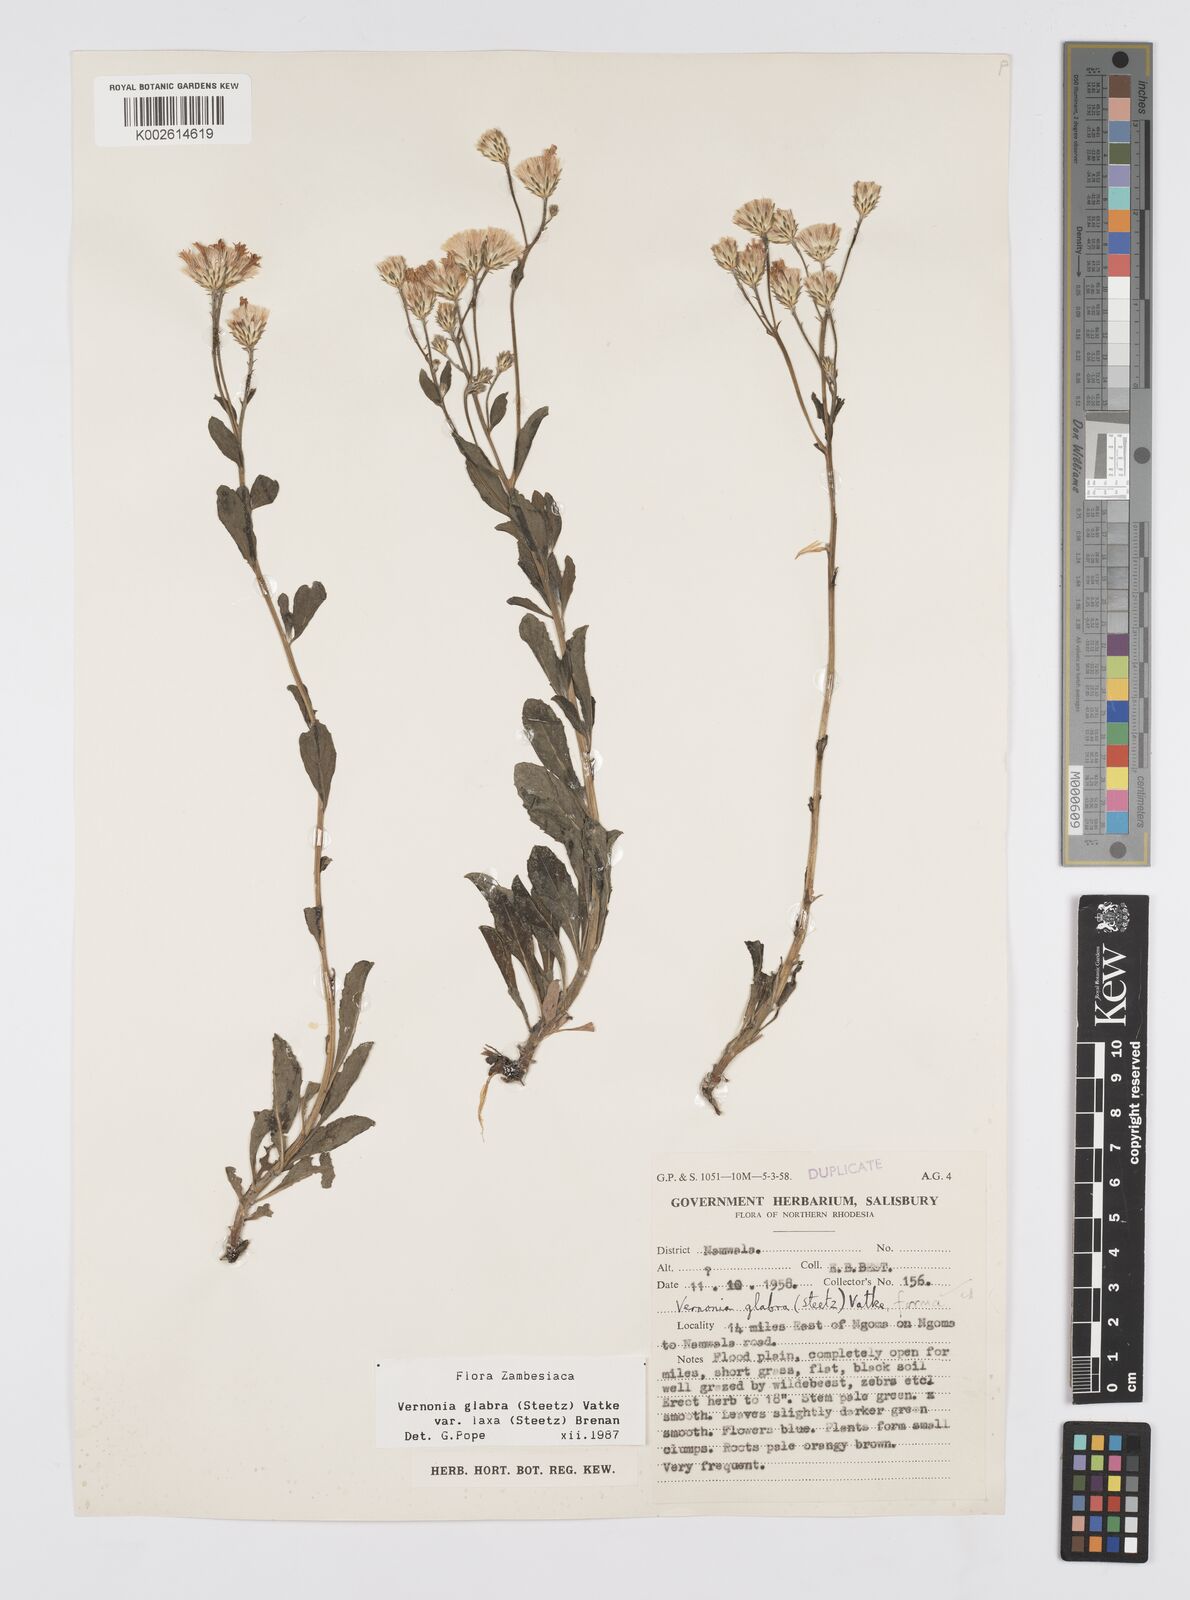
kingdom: Plantae
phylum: Tracheophyta
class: Magnoliopsida
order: Asterales
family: Asteraceae
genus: Linzia
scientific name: Linzia glabra
